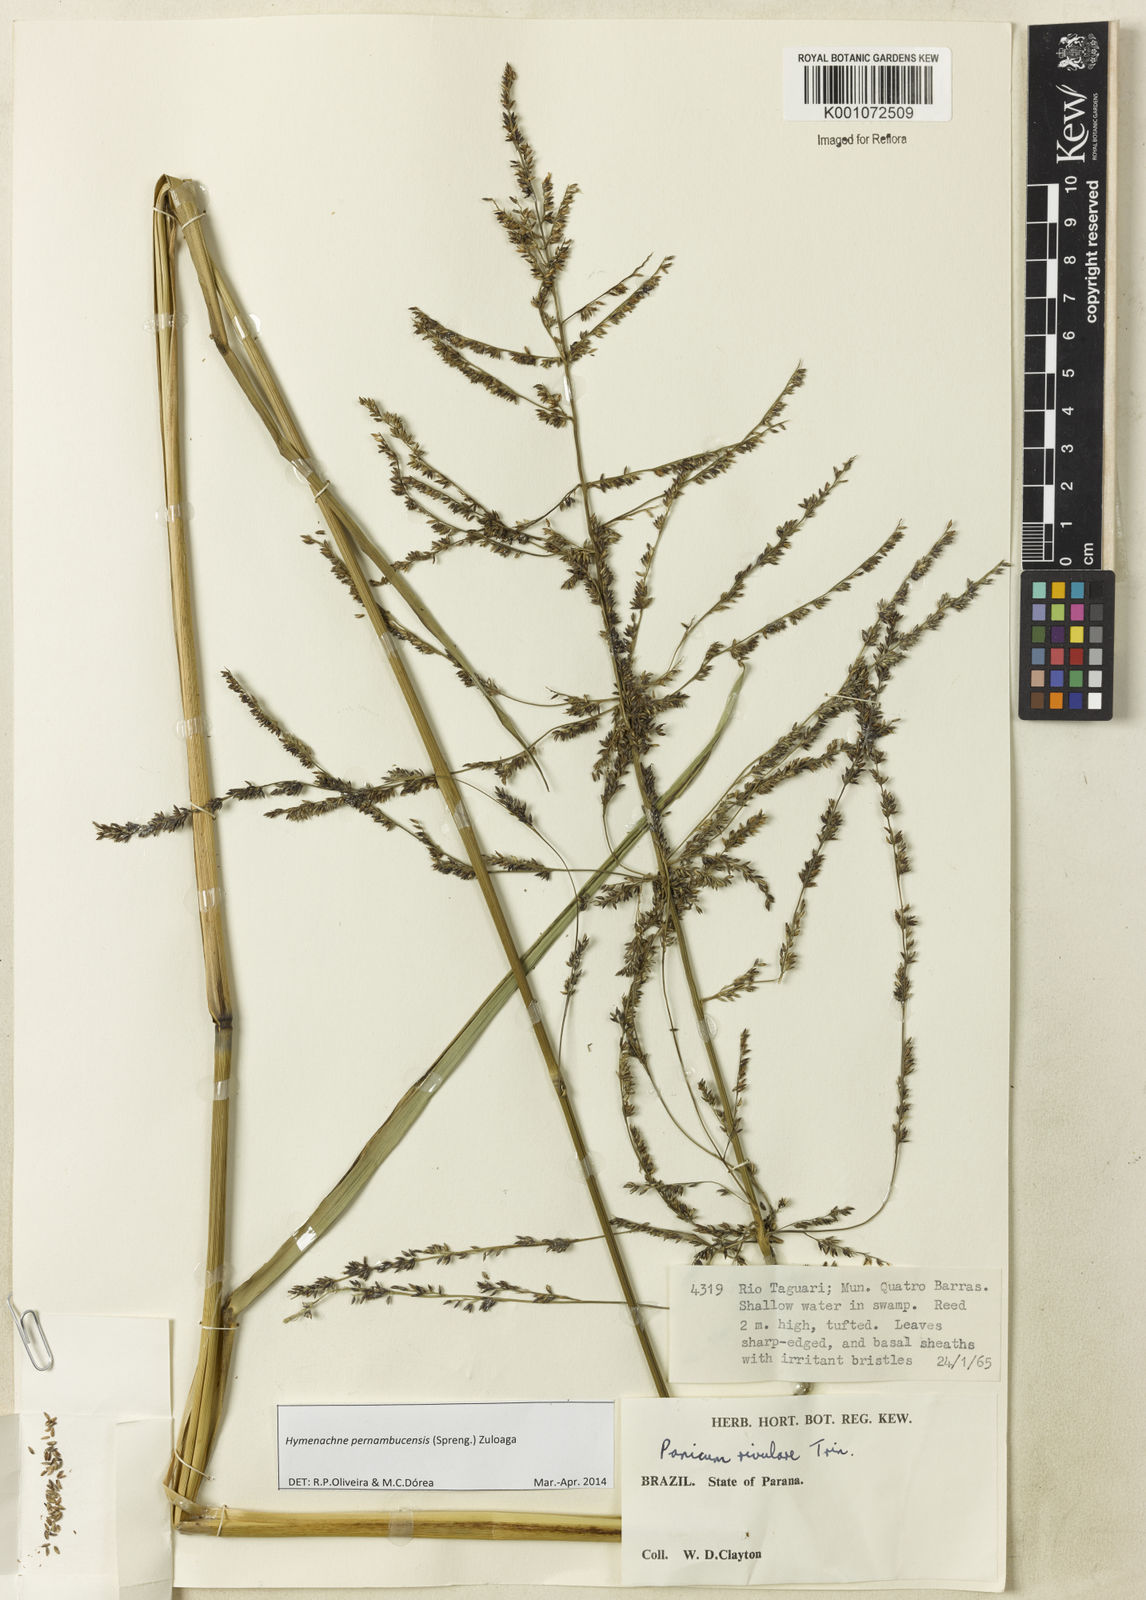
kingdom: Plantae
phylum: Tracheophyta
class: Liliopsida
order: Poales
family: Poaceae
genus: Hymenachne
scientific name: Hymenachne pernambucensis
